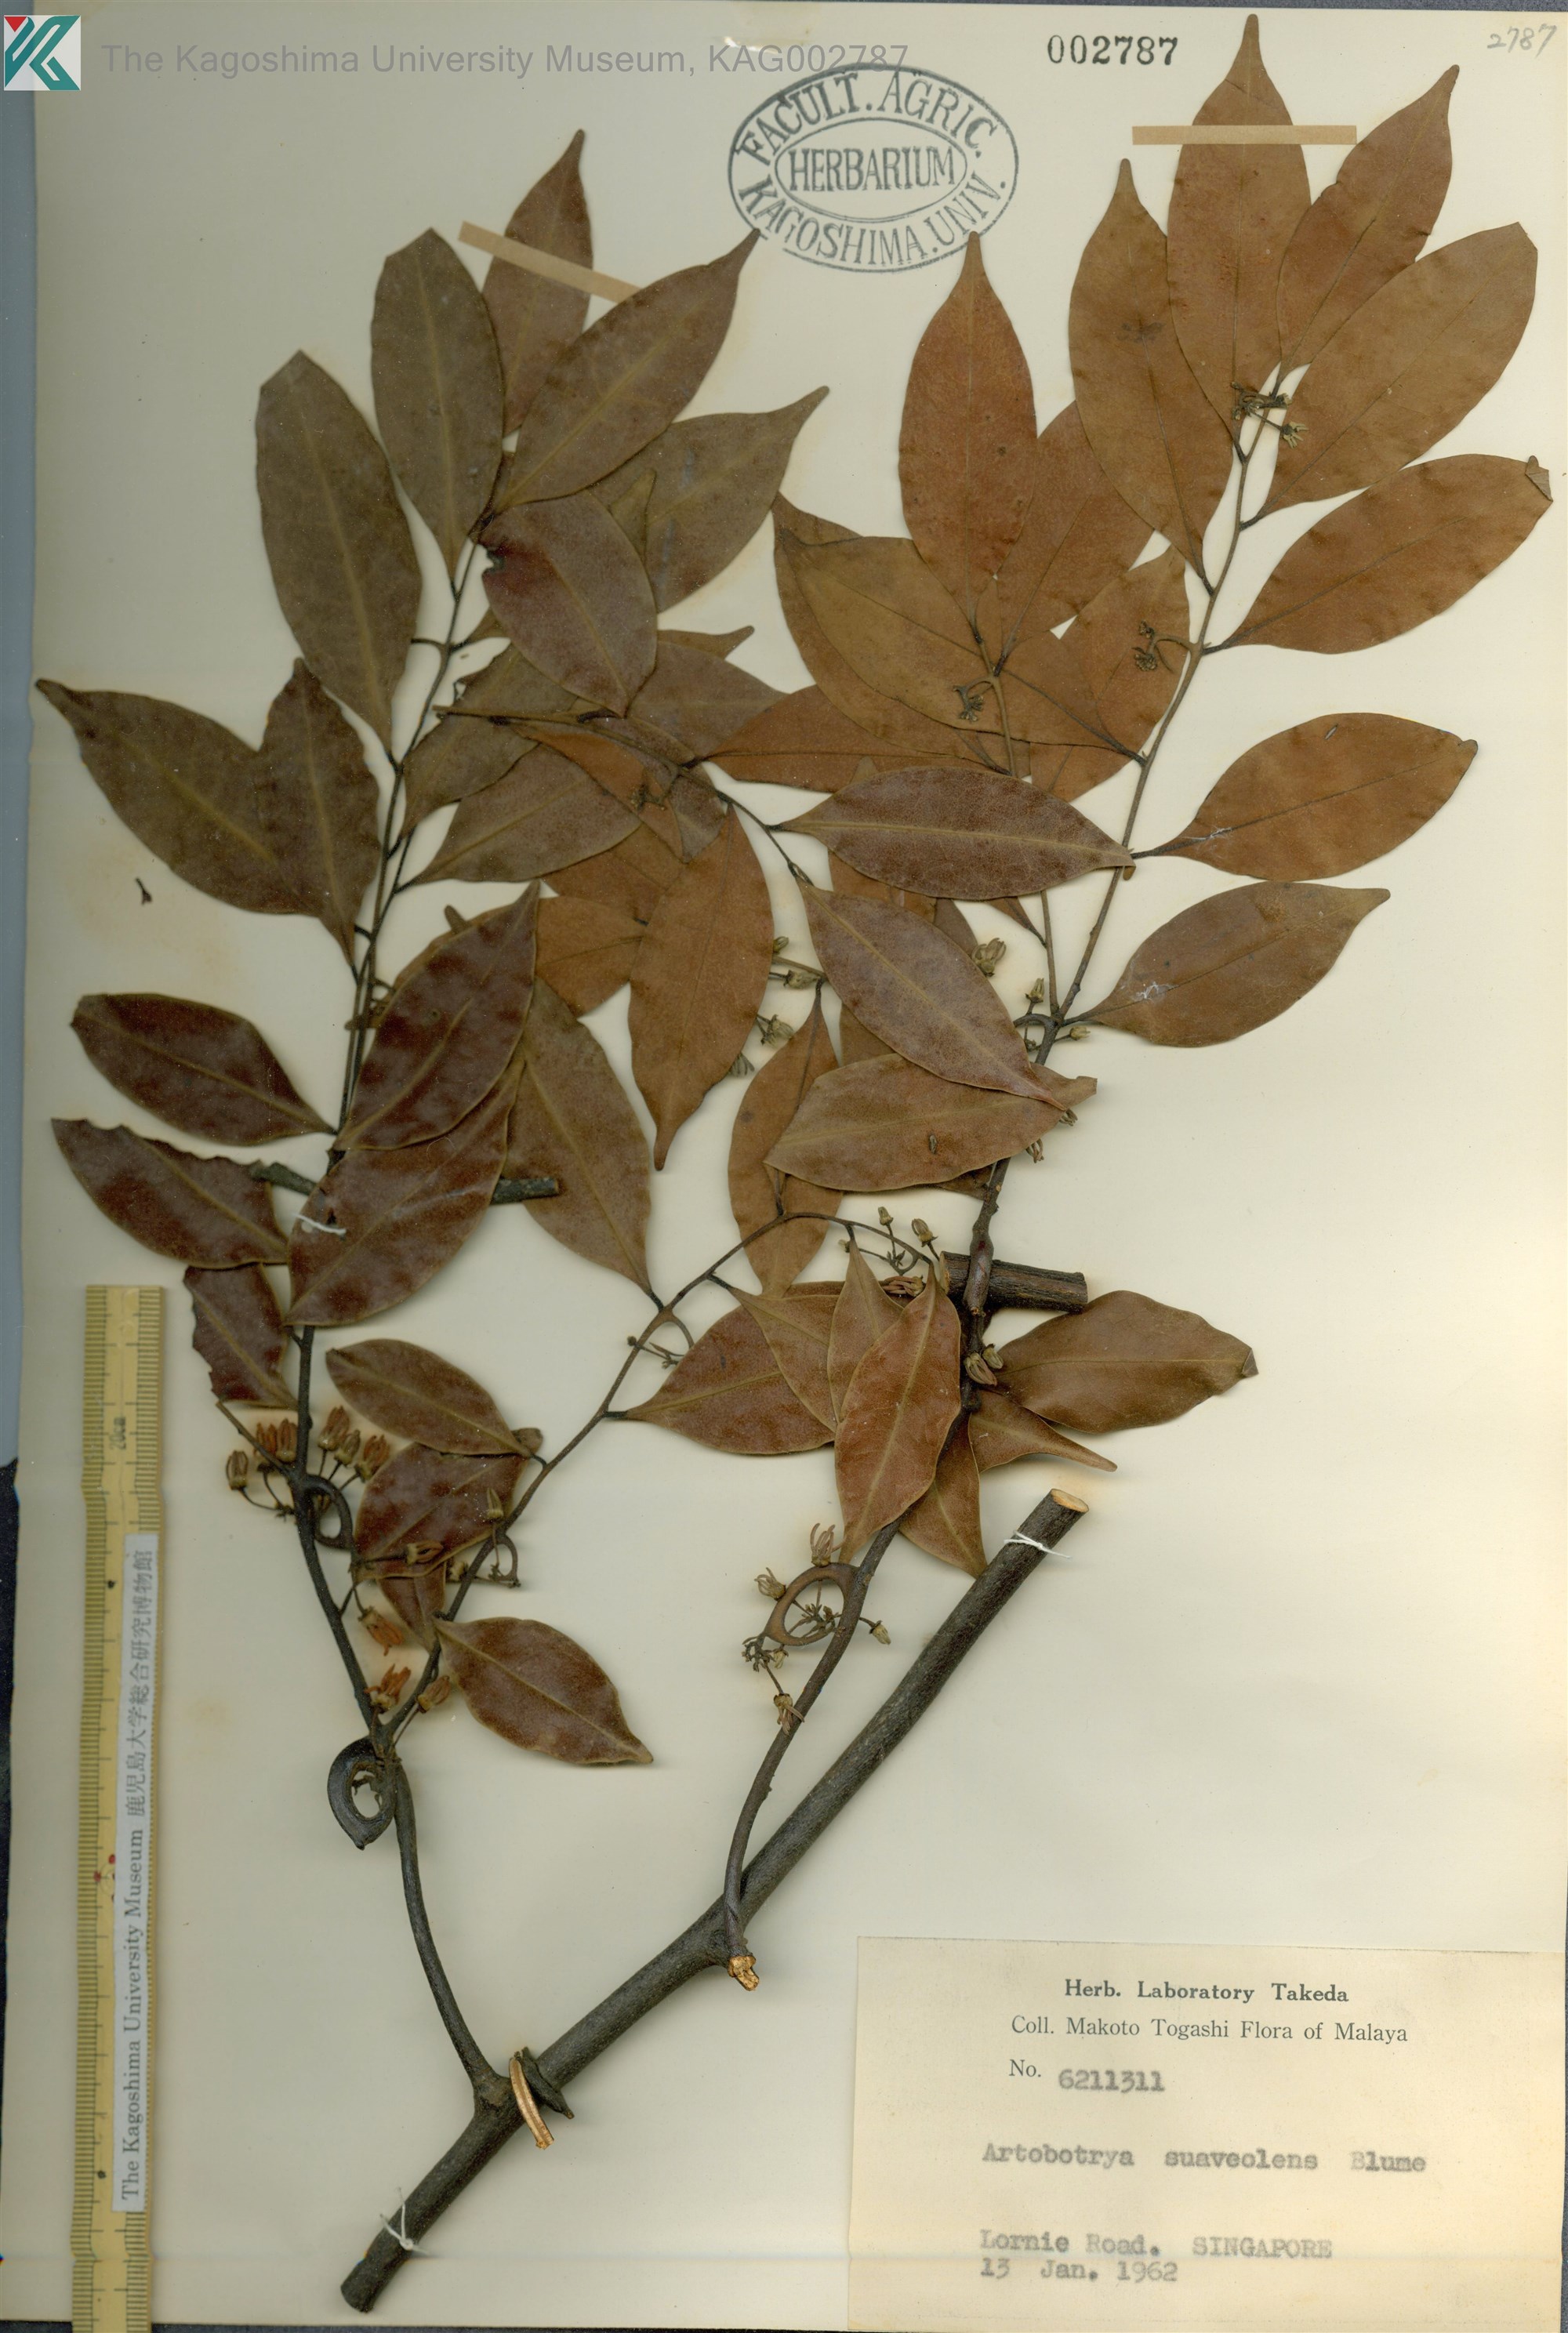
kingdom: Plantae
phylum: Tracheophyta
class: Magnoliopsida
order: Magnoliales
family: Annonaceae
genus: Artabotrys
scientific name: Artabotrys suaveolens
